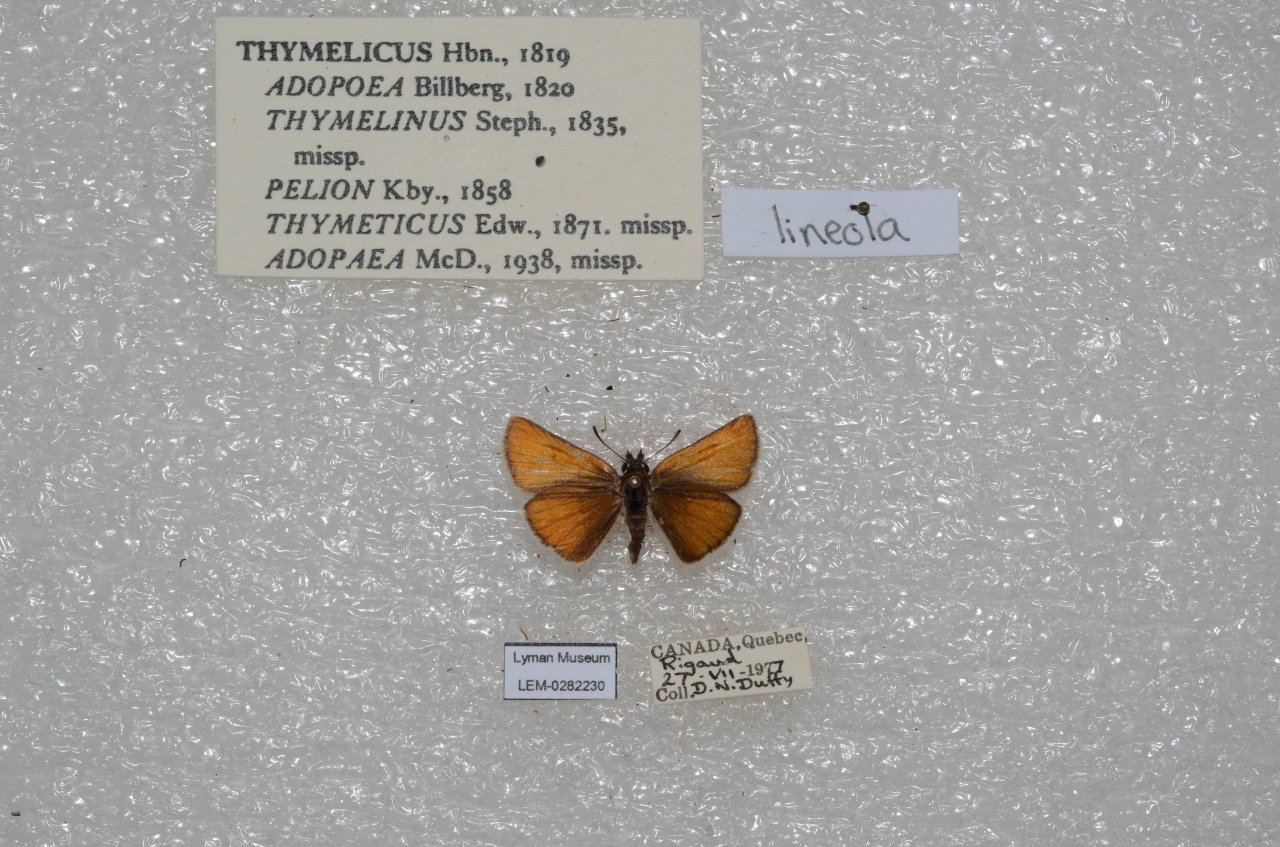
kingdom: Animalia
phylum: Arthropoda
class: Insecta
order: Lepidoptera
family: Hesperiidae
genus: Thymelicus
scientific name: Thymelicus lineola
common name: European Skipper
